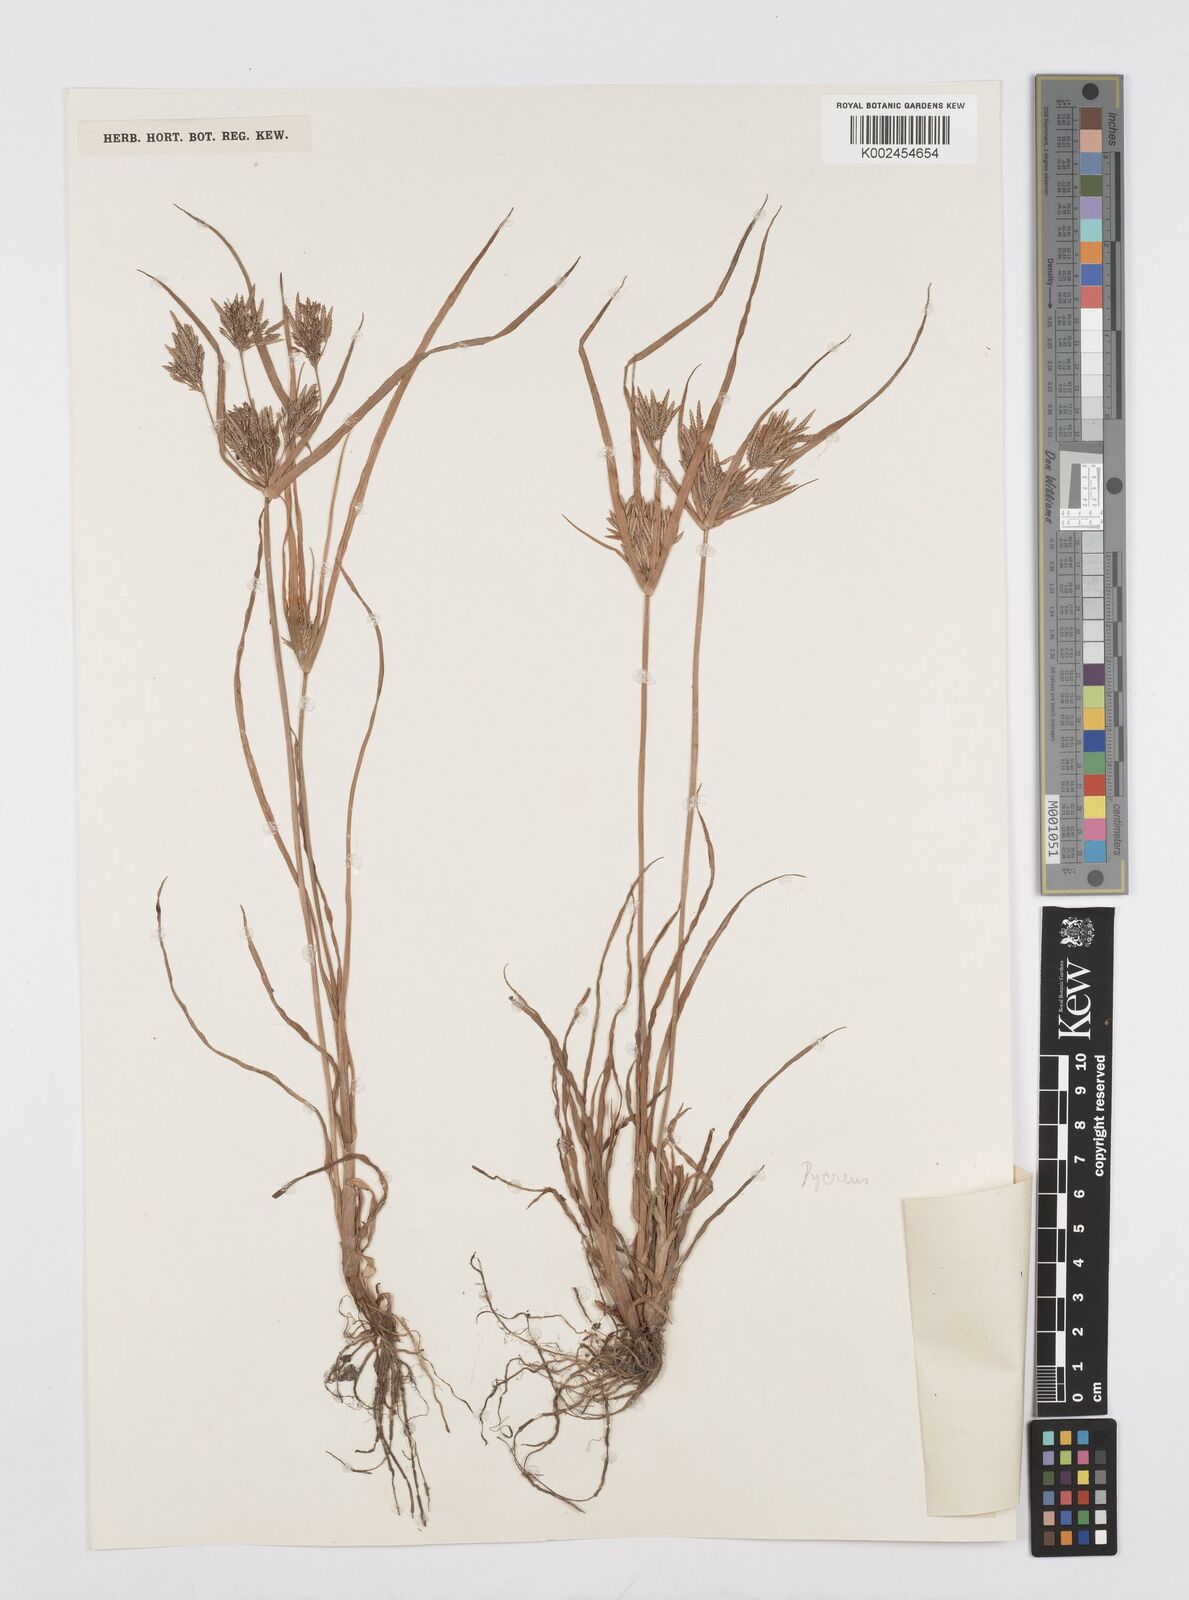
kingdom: Plantae
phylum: Tracheophyta
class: Liliopsida
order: Poales
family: Cyperaceae
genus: Cyperus
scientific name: Cyperus polystachyos
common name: Bunchy flat sedge
